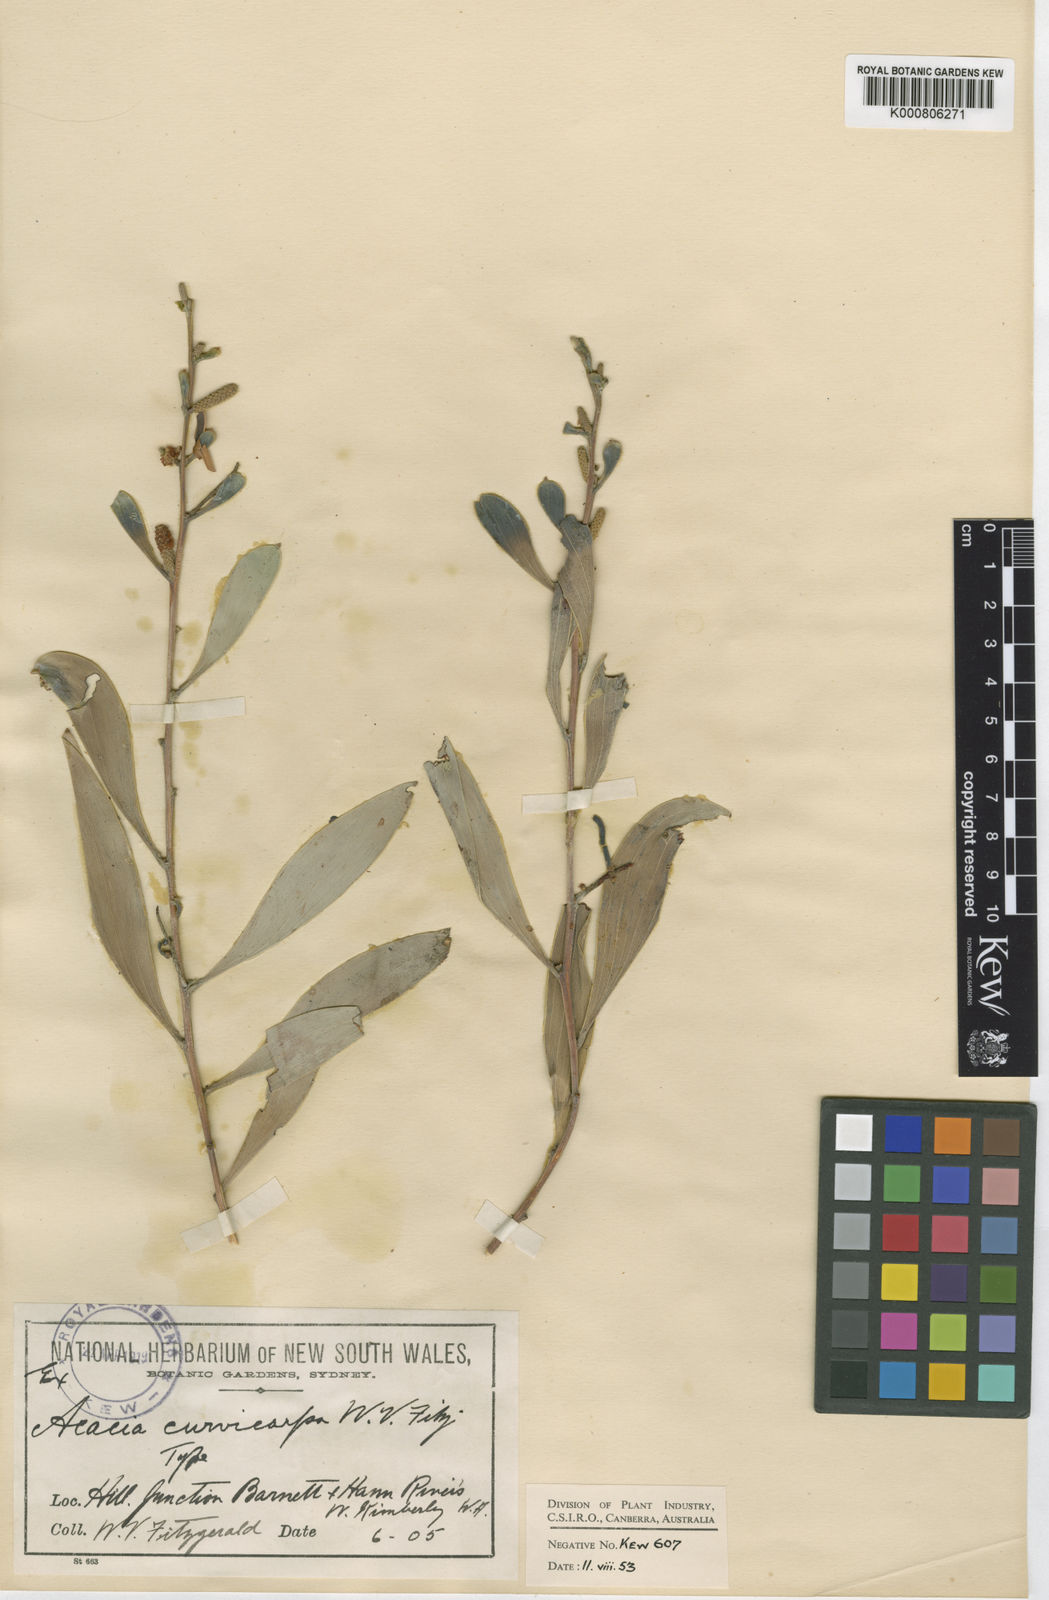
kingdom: Plantae
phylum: Tracheophyta
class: Magnoliopsida
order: Fabales
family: Fabaceae
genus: Acacia
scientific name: Acacia
